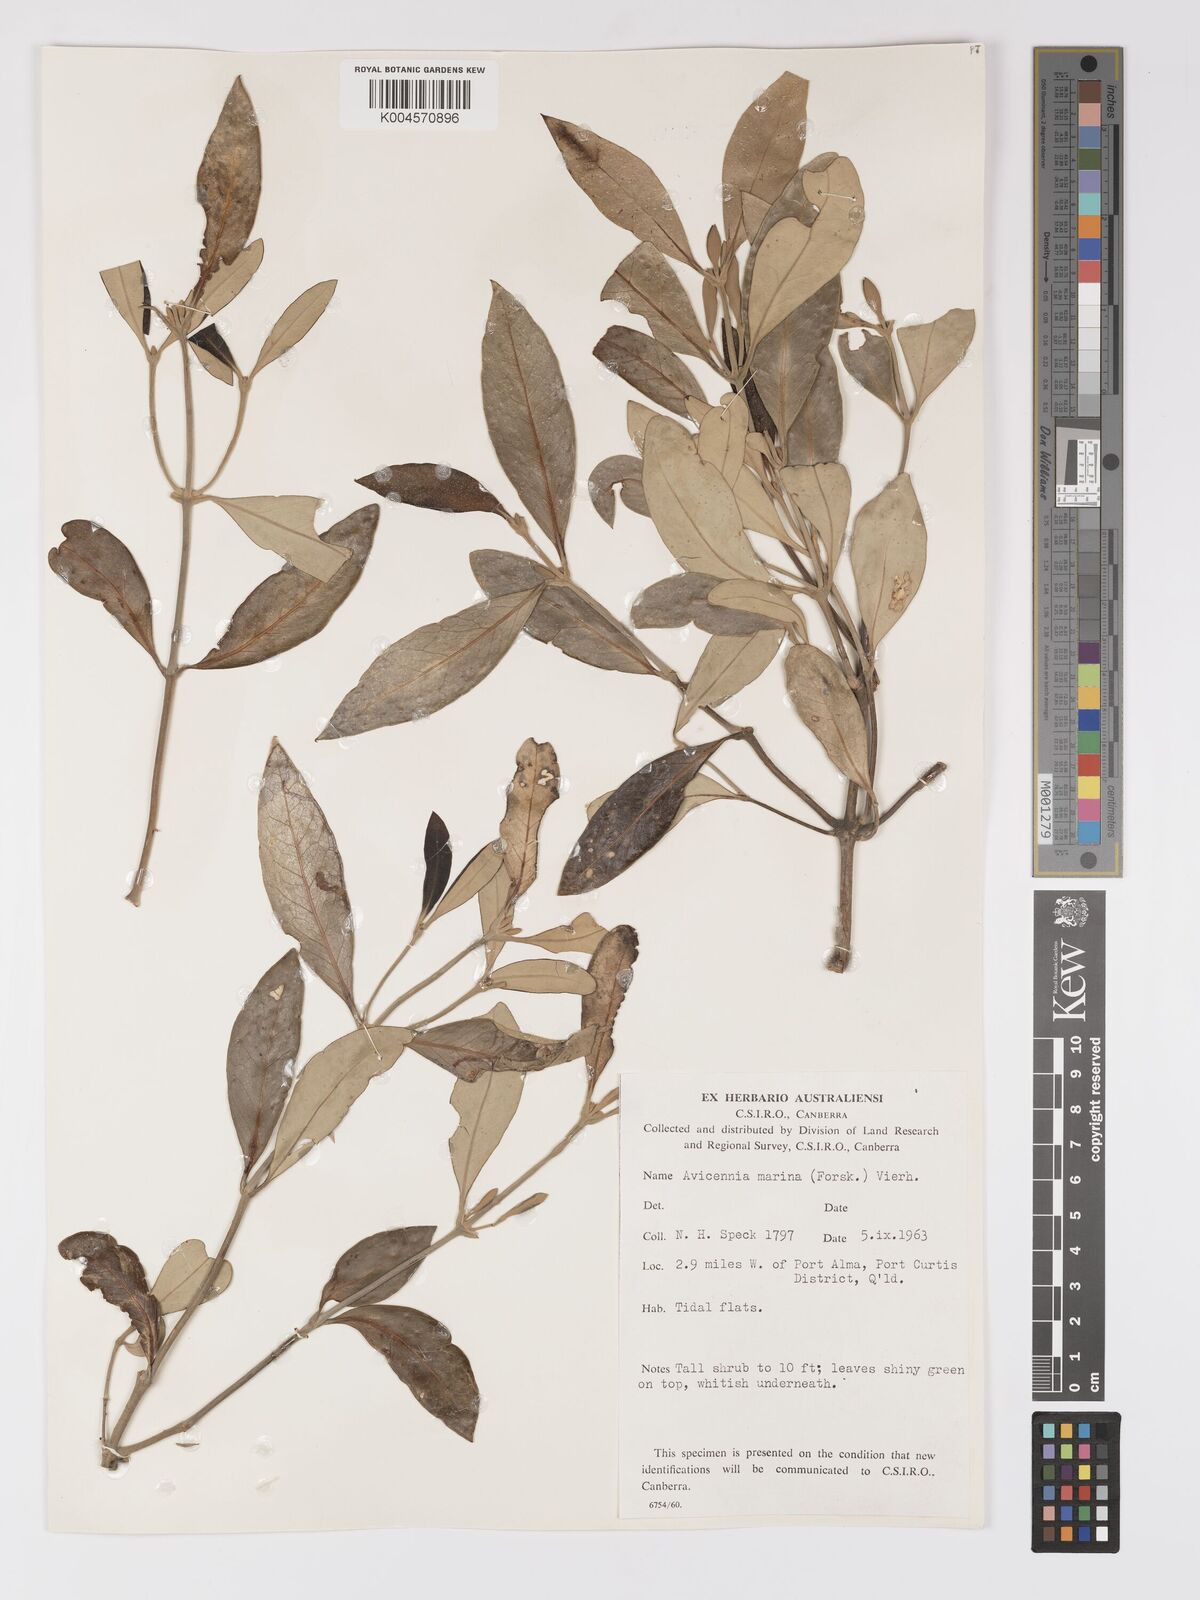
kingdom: Plantae
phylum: Tracheophyta
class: Magnoliopsida
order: Lamiales
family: Acanthaceae
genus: Avicennia
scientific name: Avicennia marina
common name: Gray mangrove
